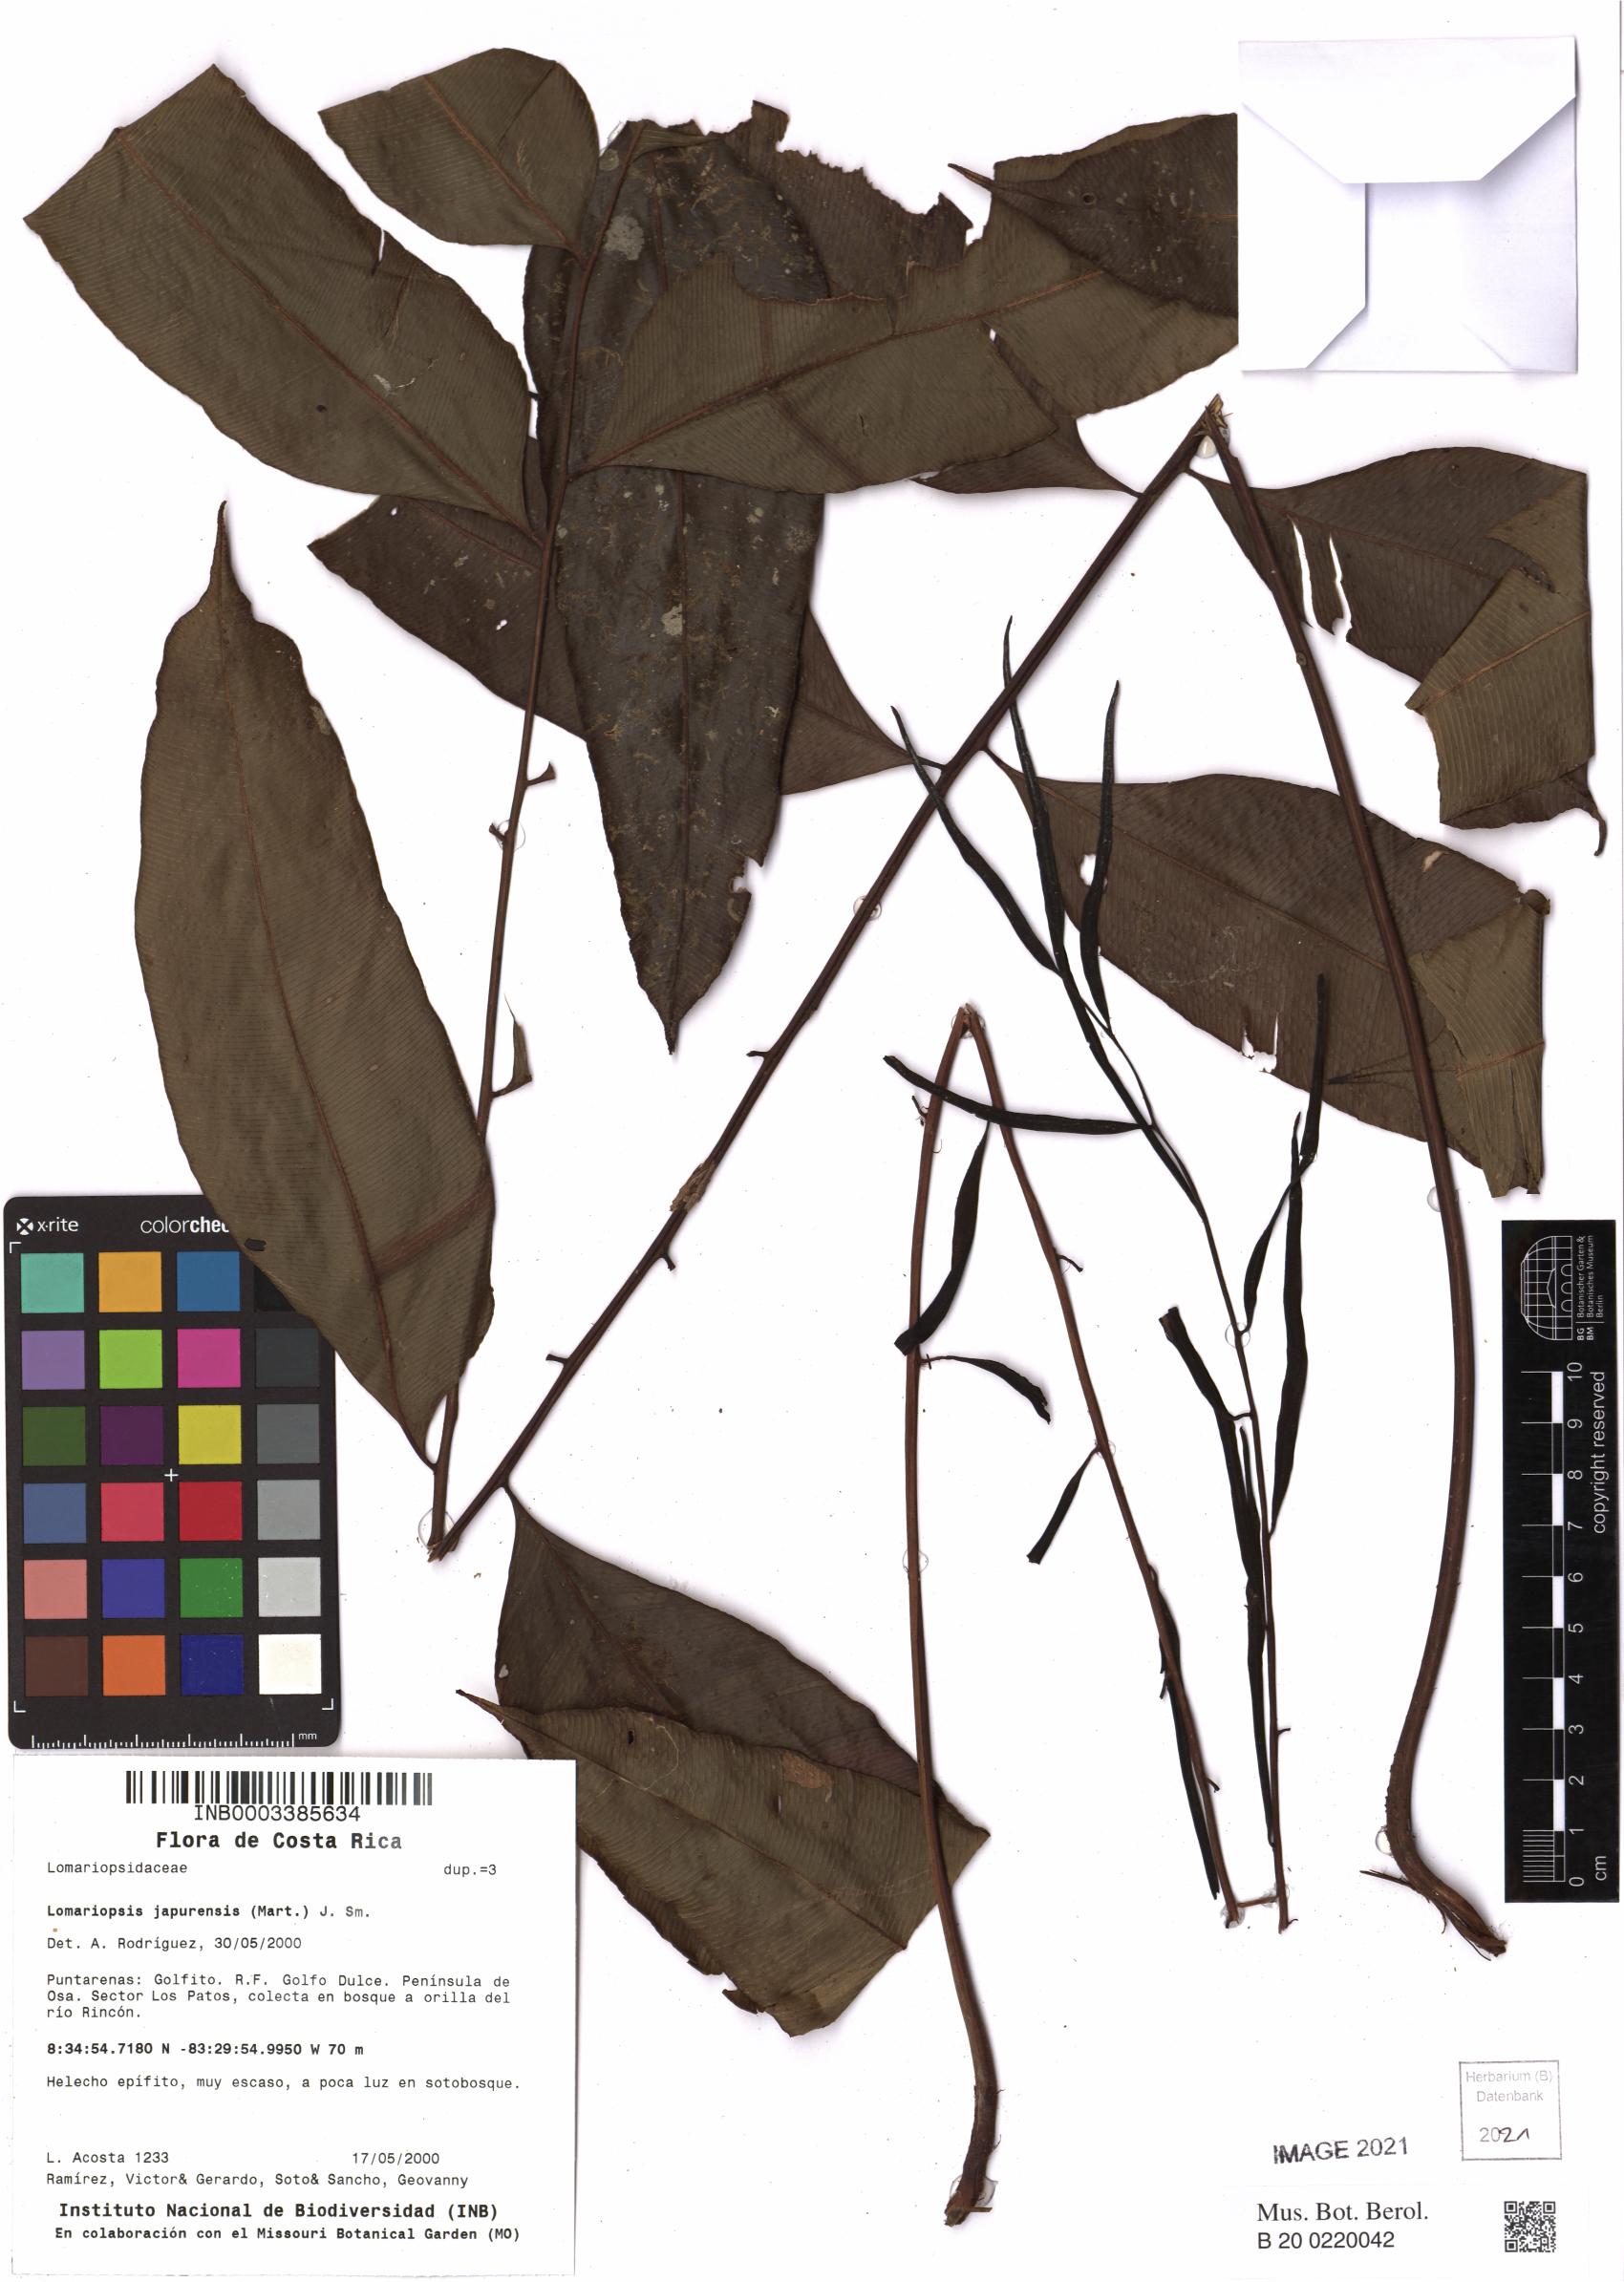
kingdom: Plantae
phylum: Tracheophyta
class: Polypodiopsida
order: Polypodiales
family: Lomariopsidaceae
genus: Lomariopsis
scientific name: Lomariopsis japurensis
